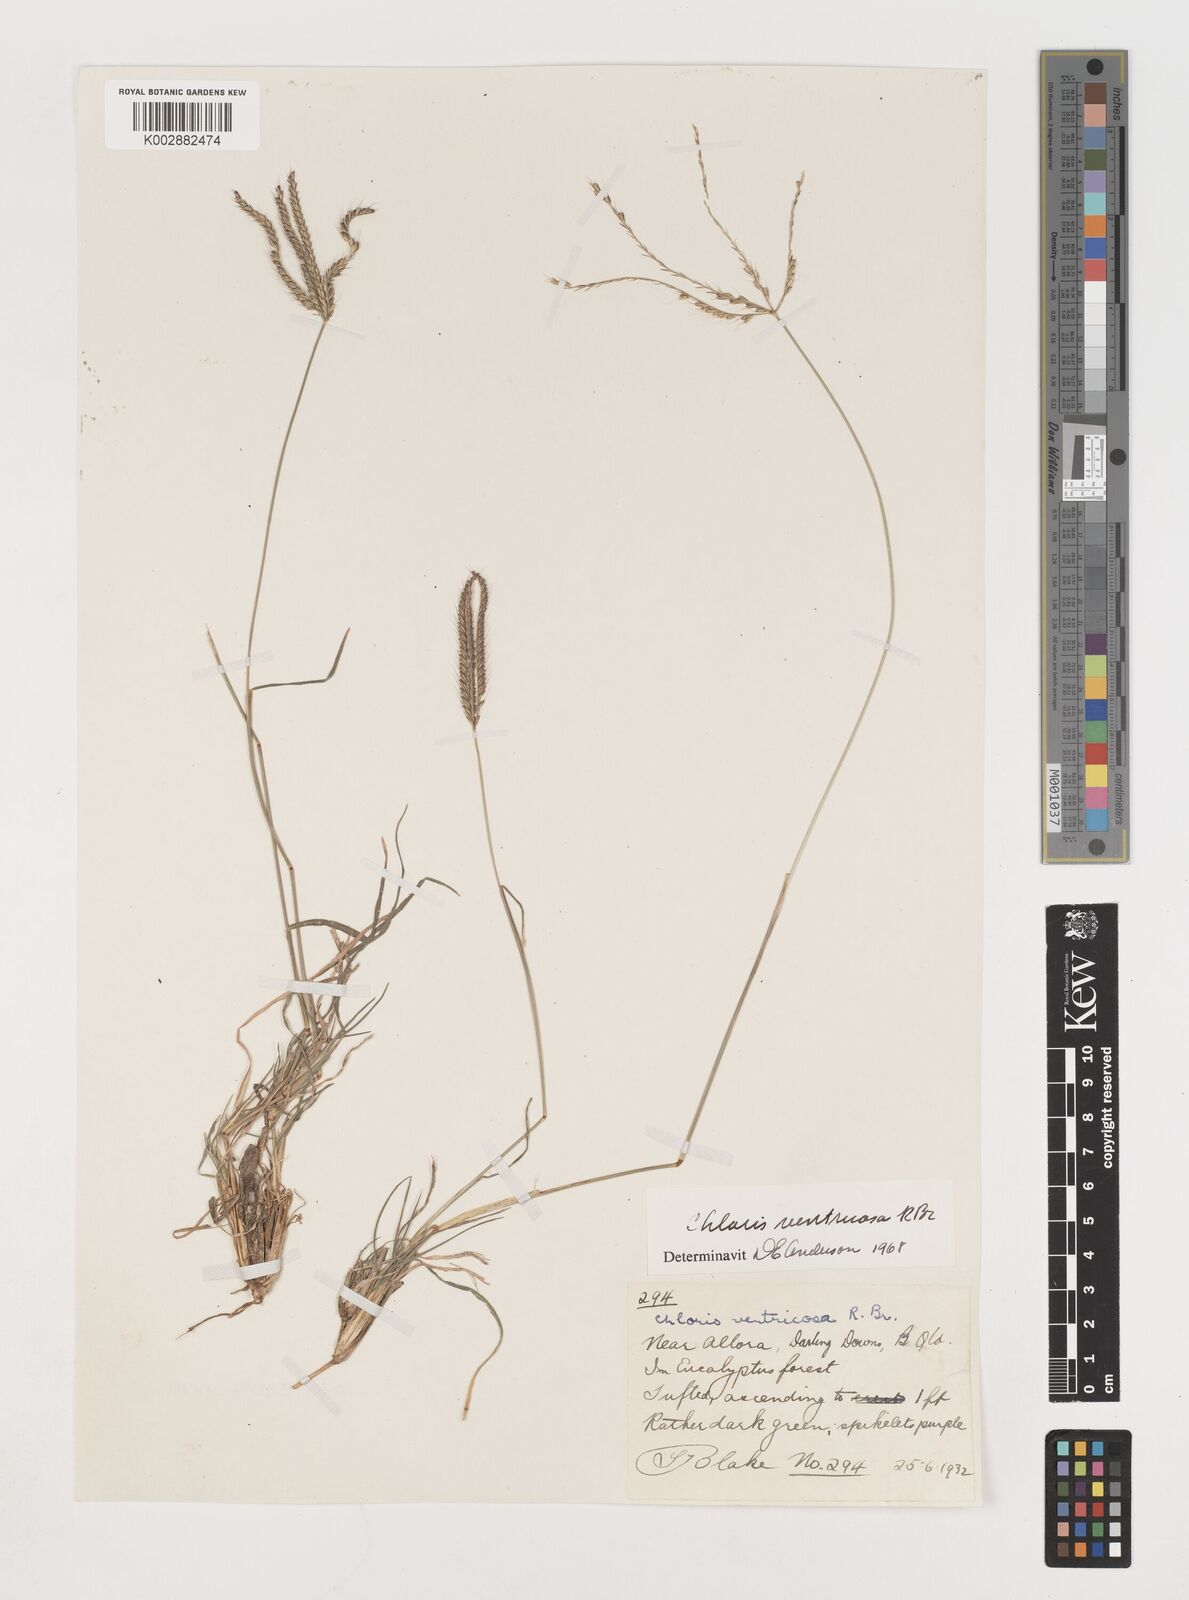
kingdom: Plantae
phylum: Tracheophyta
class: Liliopsida
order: Poales
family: Poaceae
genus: Chloris
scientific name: Chloris ventricosa
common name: Australian windmill grass
